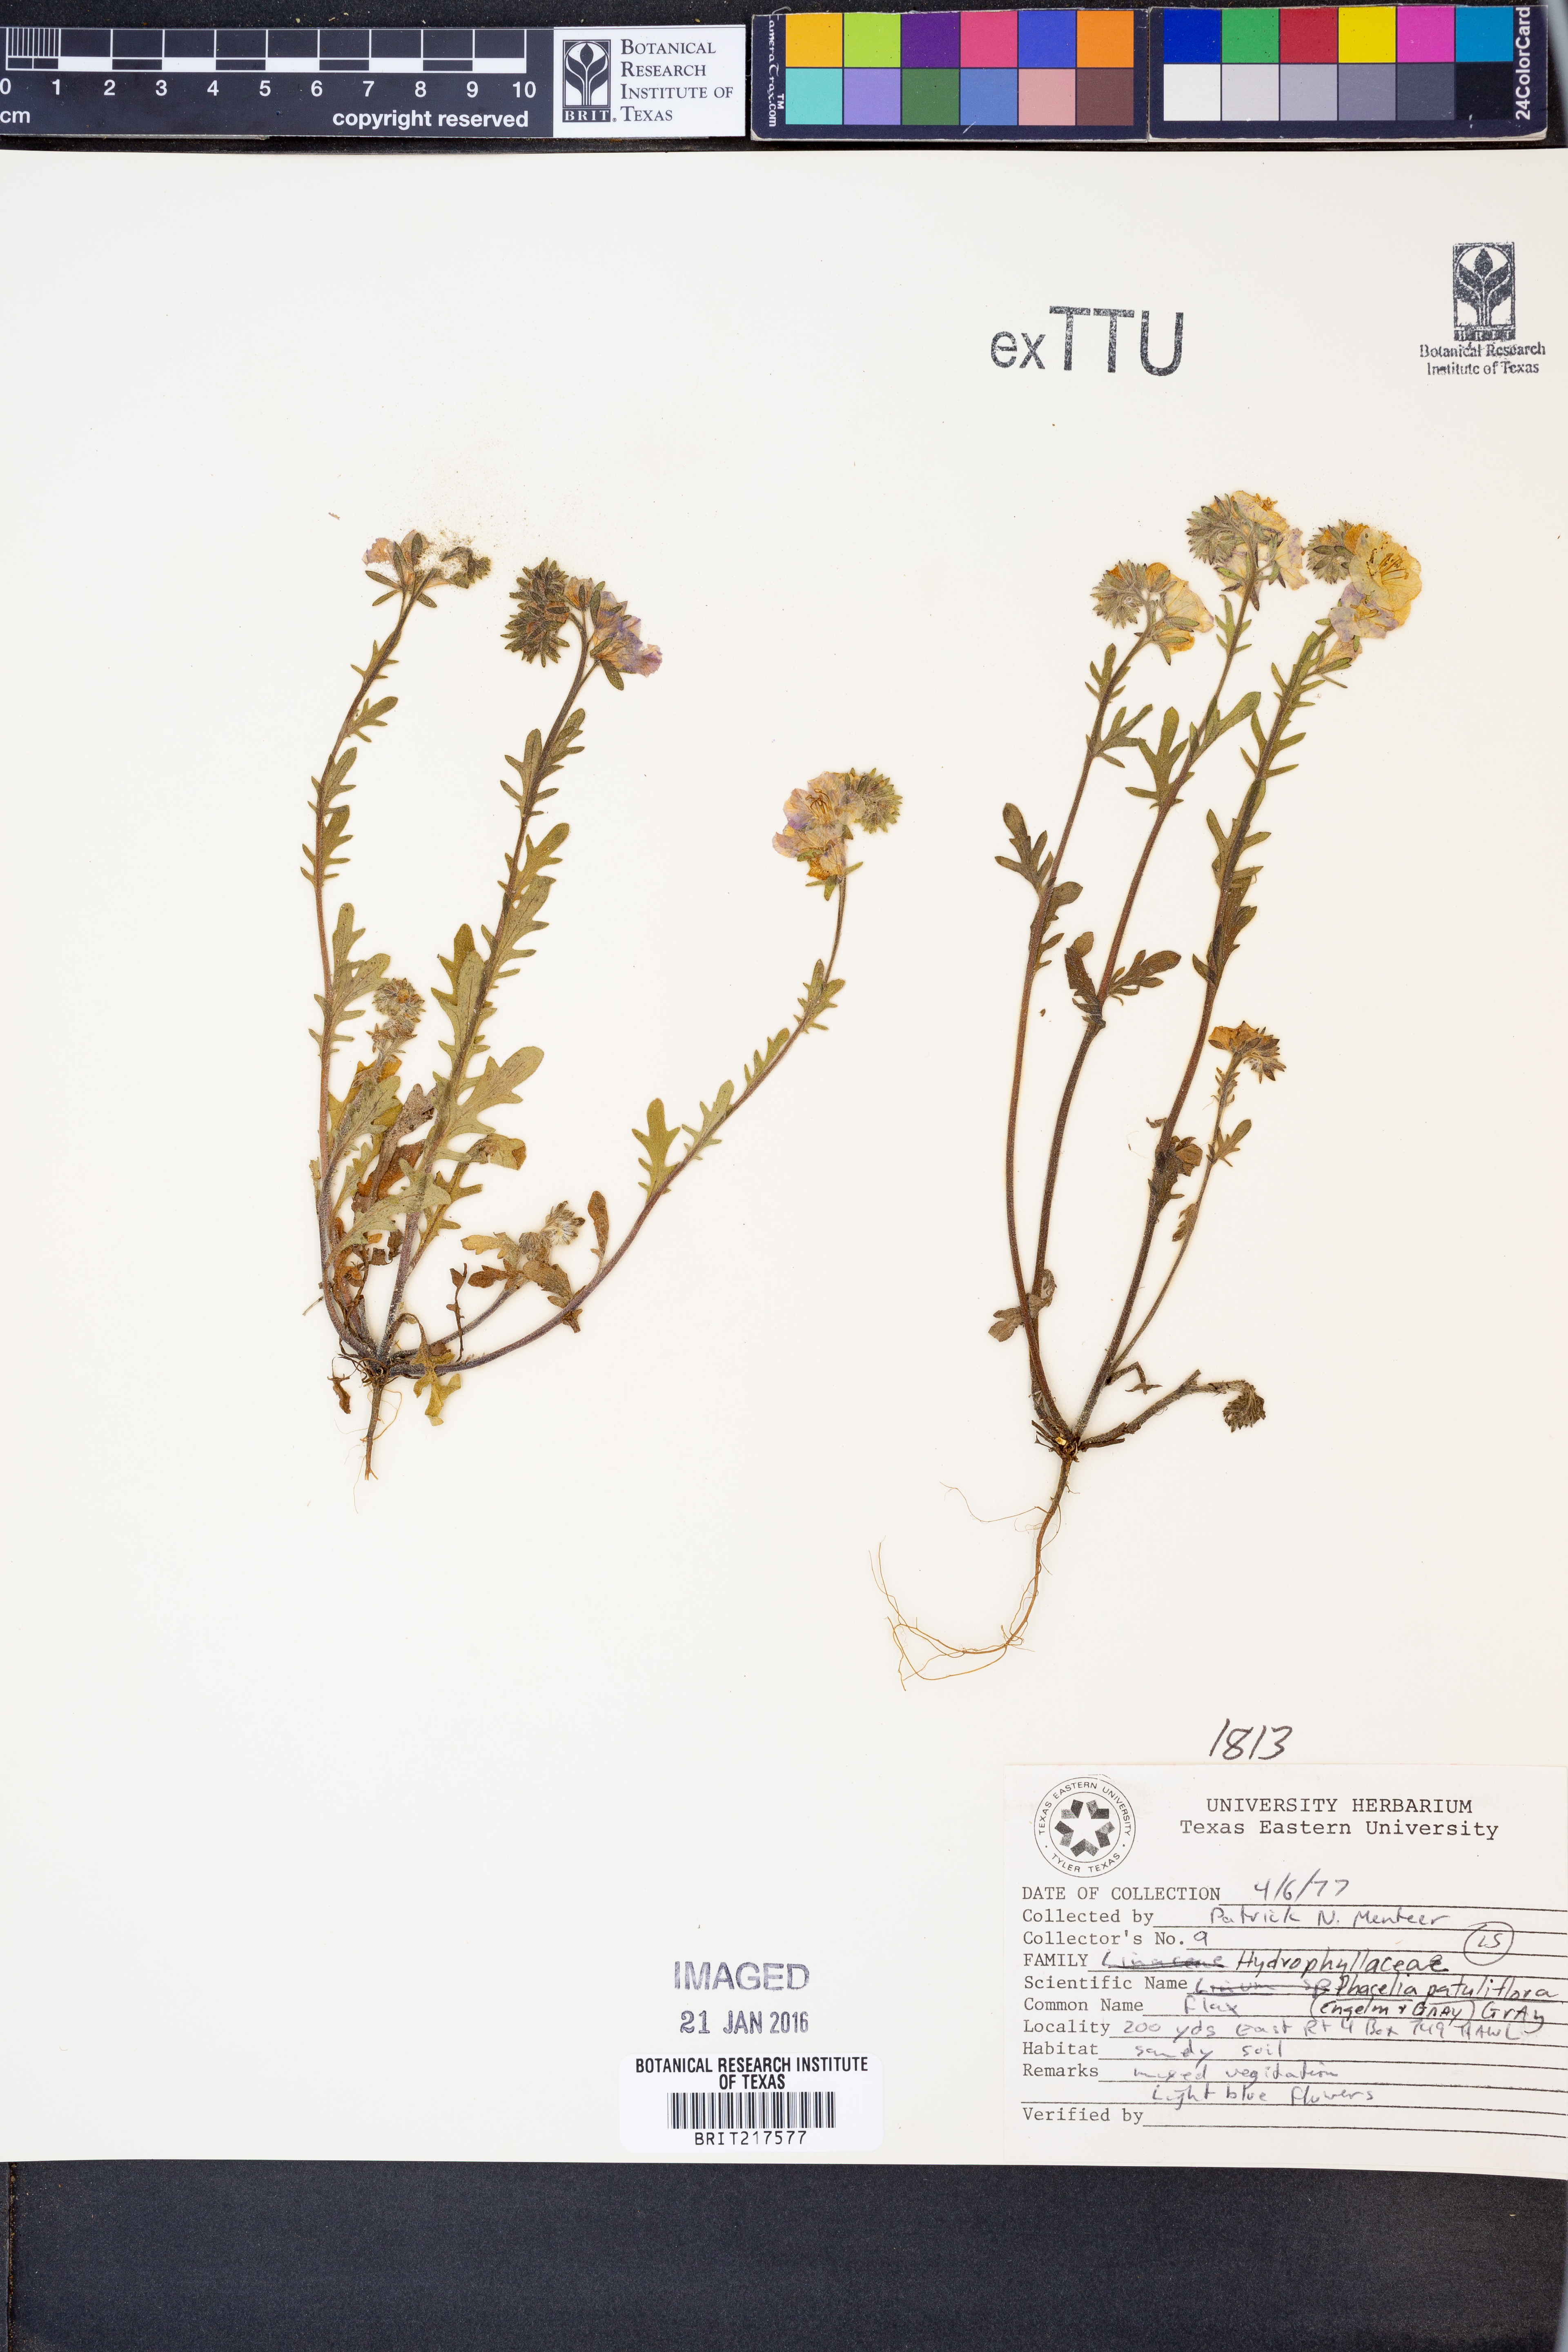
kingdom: Plantae
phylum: Tracheophyta
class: Magnoliopsida
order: Boraginales
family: Hydrophyllaceae
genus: Phacelia
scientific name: Phacelia patuliflora
